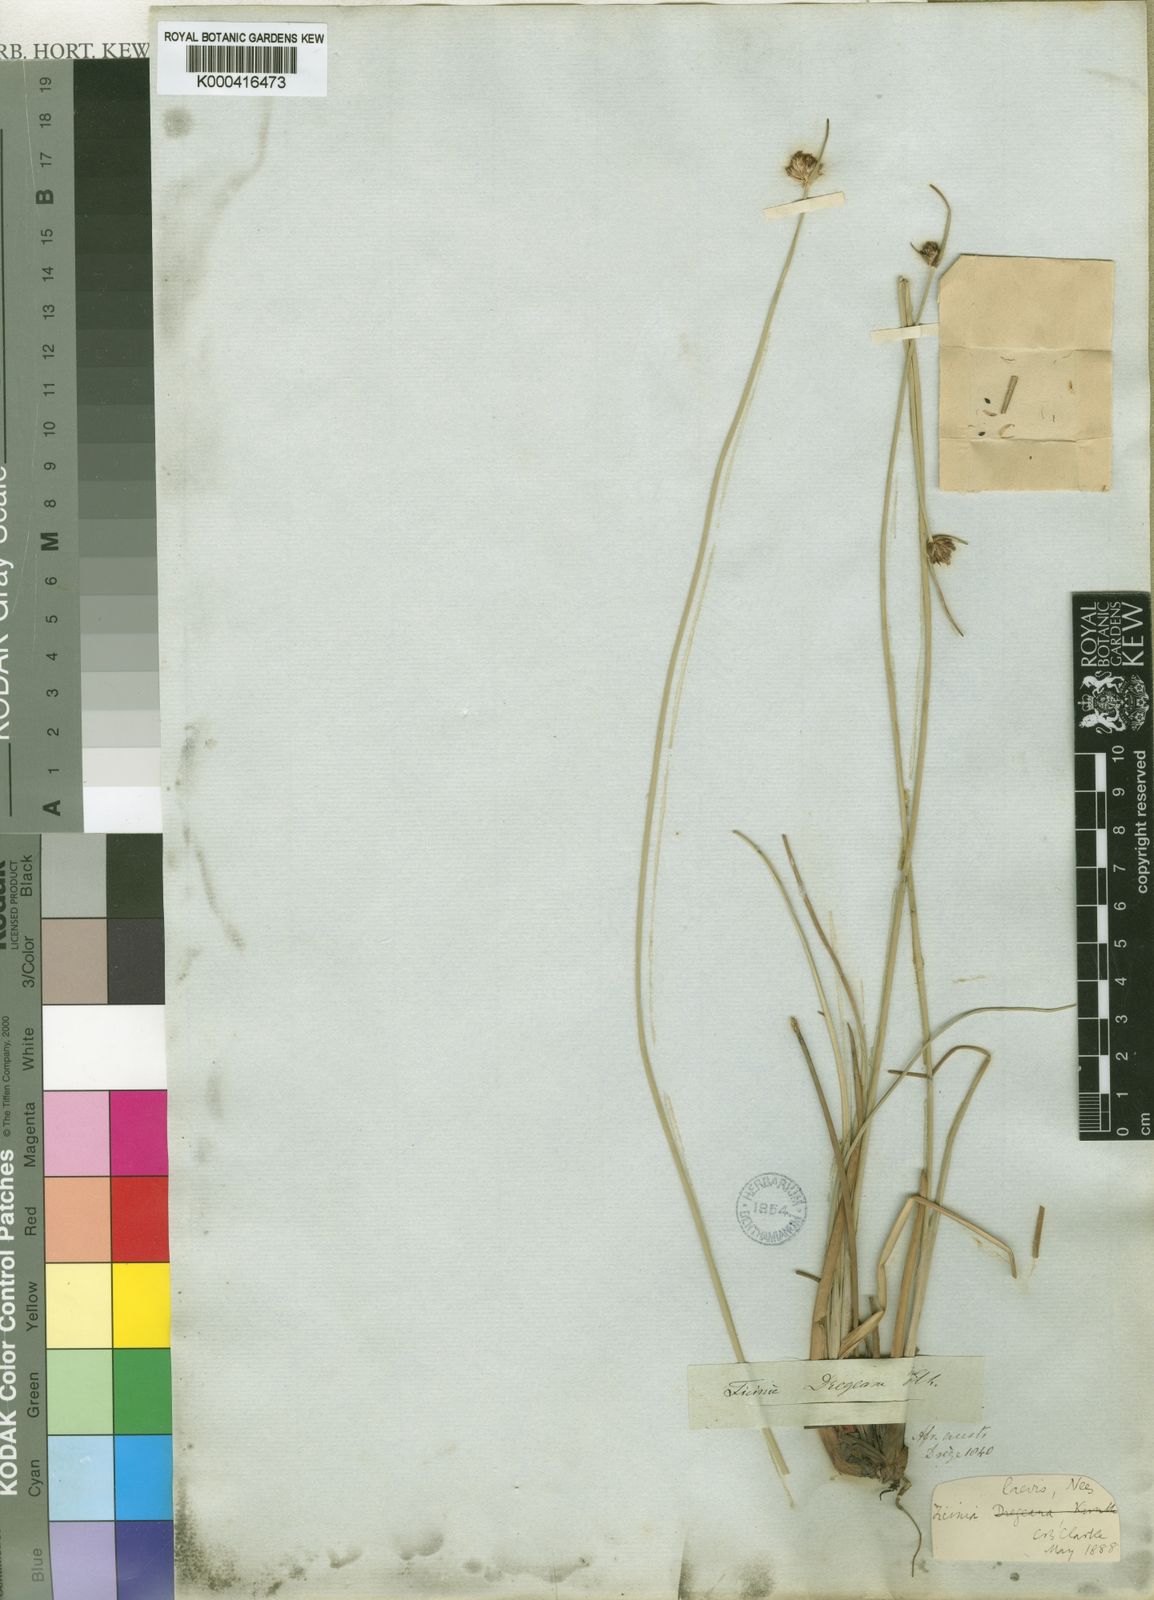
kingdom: Plantae
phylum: Tracheophyta
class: Liliopsida
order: Poales
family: Cyperaceae
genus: Ficinia
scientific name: Ficinia laevis
